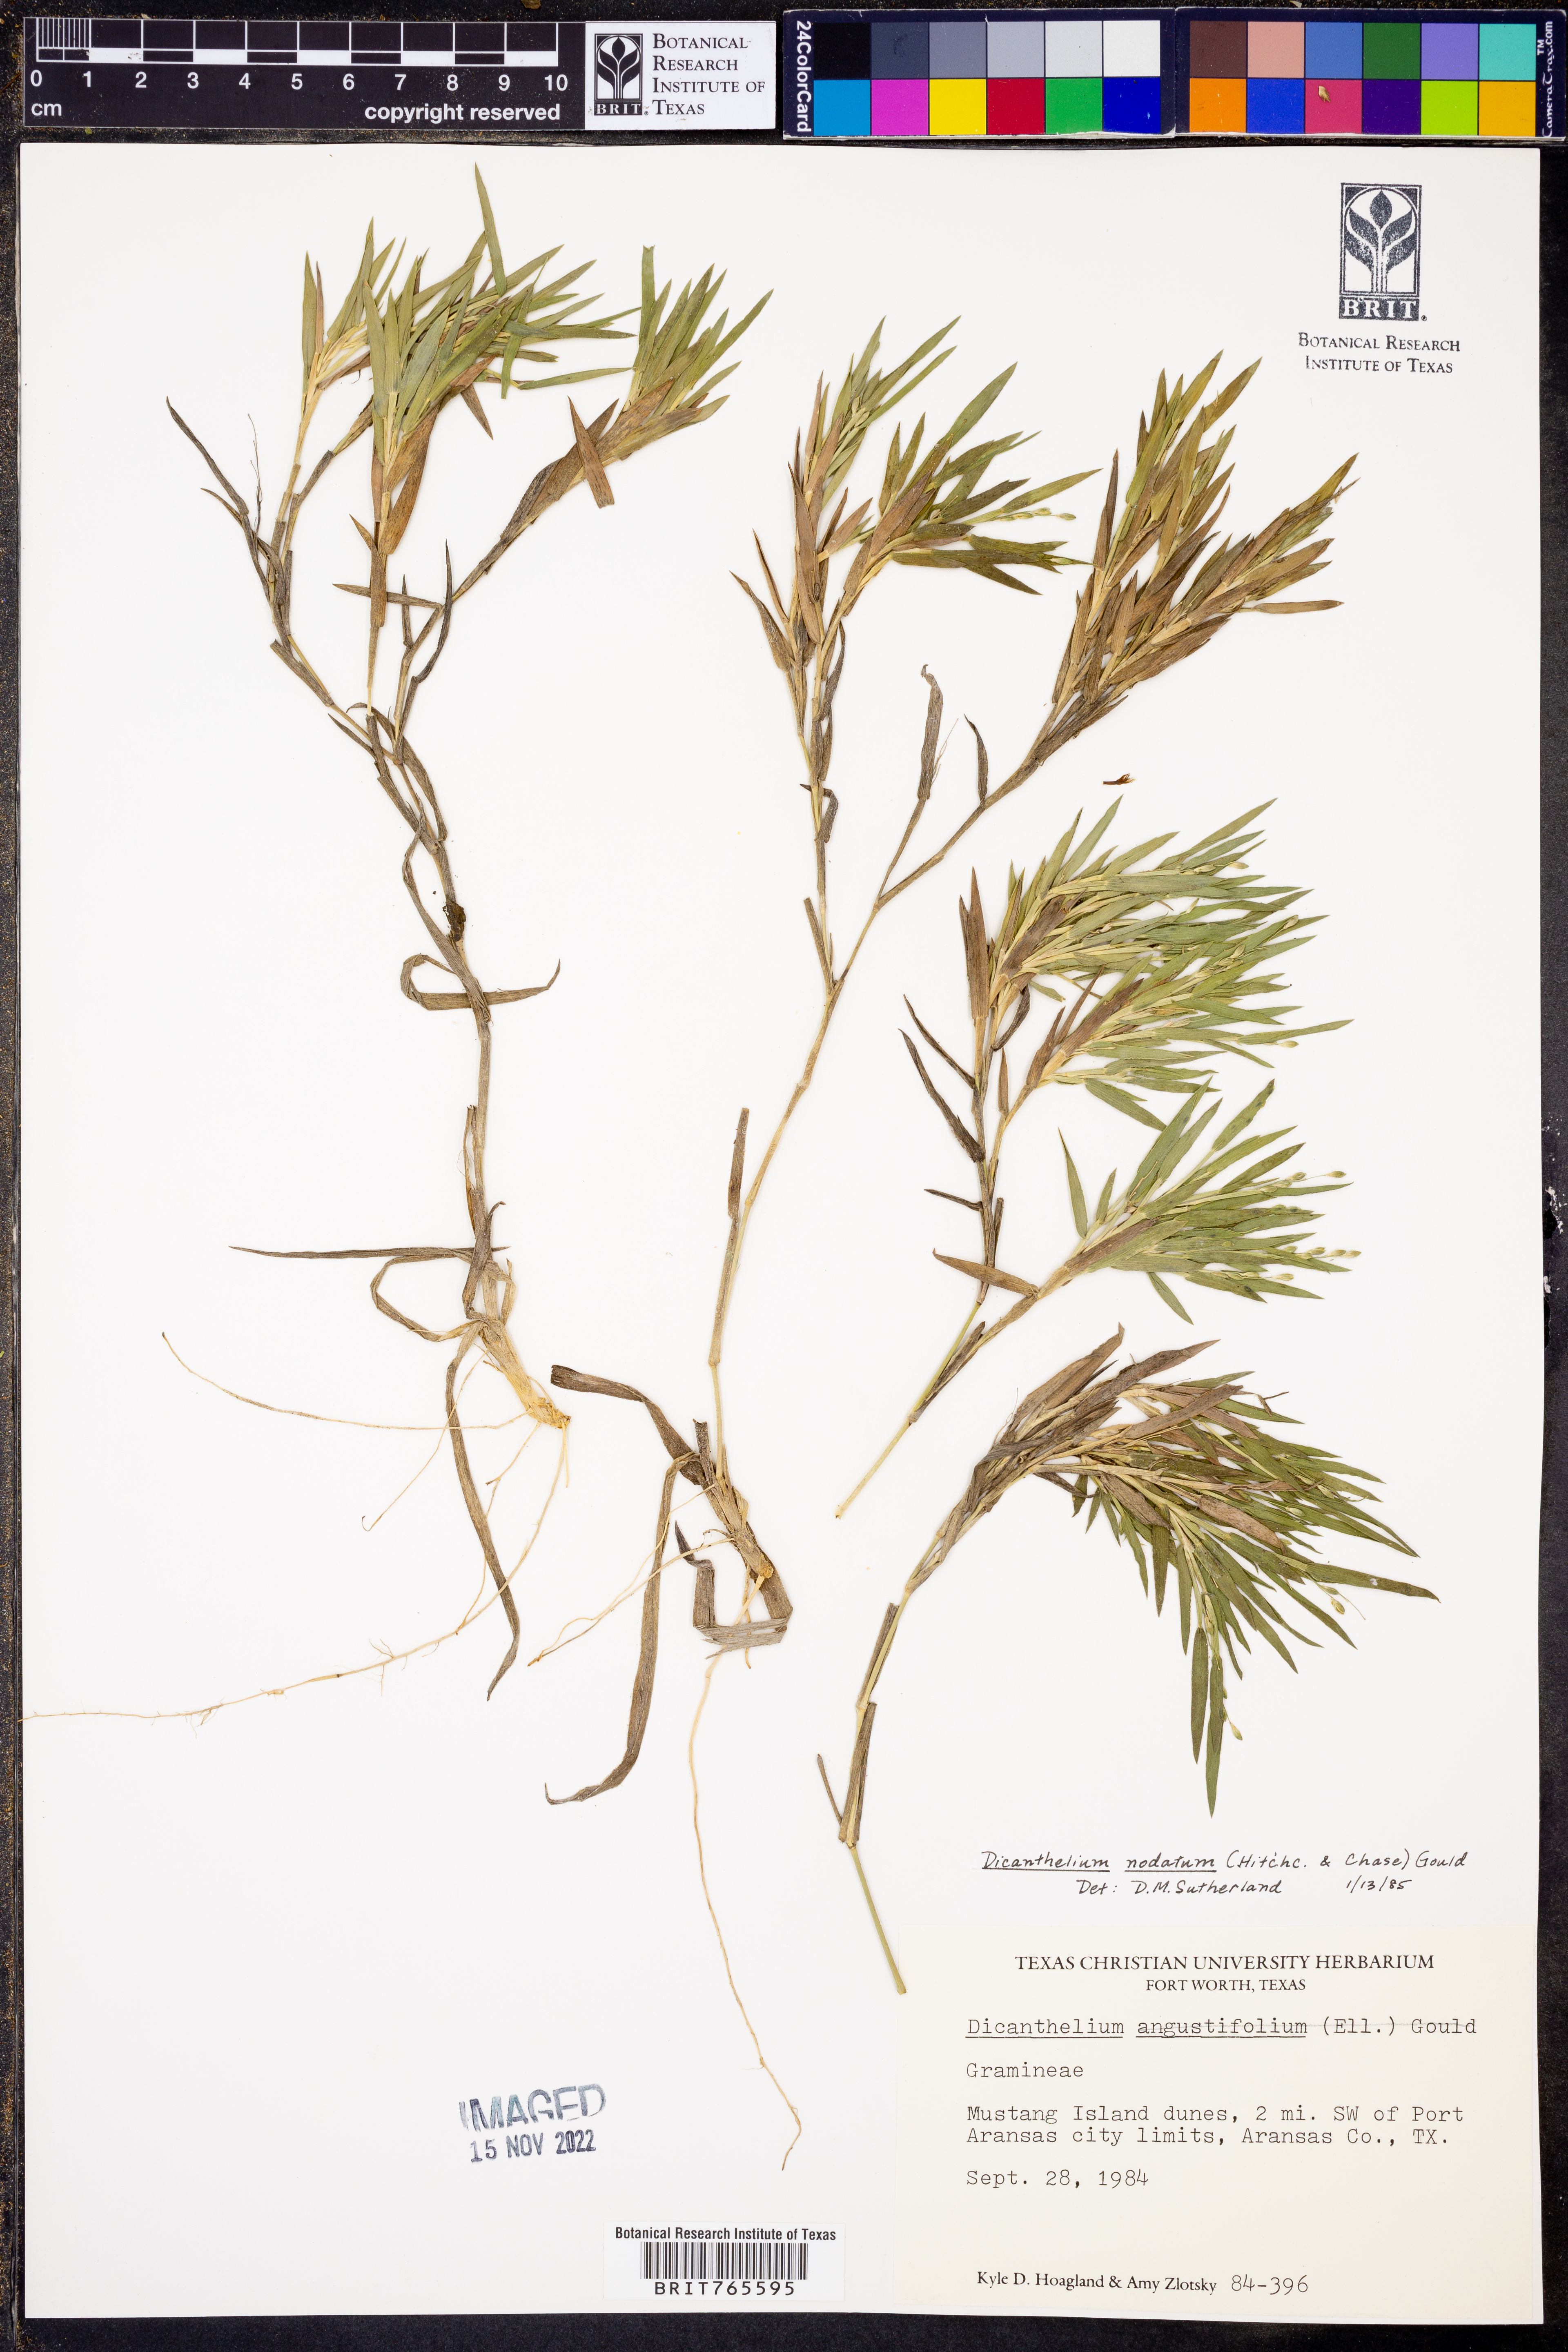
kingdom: Plantae
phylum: Tracheophyta
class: Liliopsida
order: Poales
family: Poaceae
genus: Dichanthelium
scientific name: Dichanthelium nodatum
